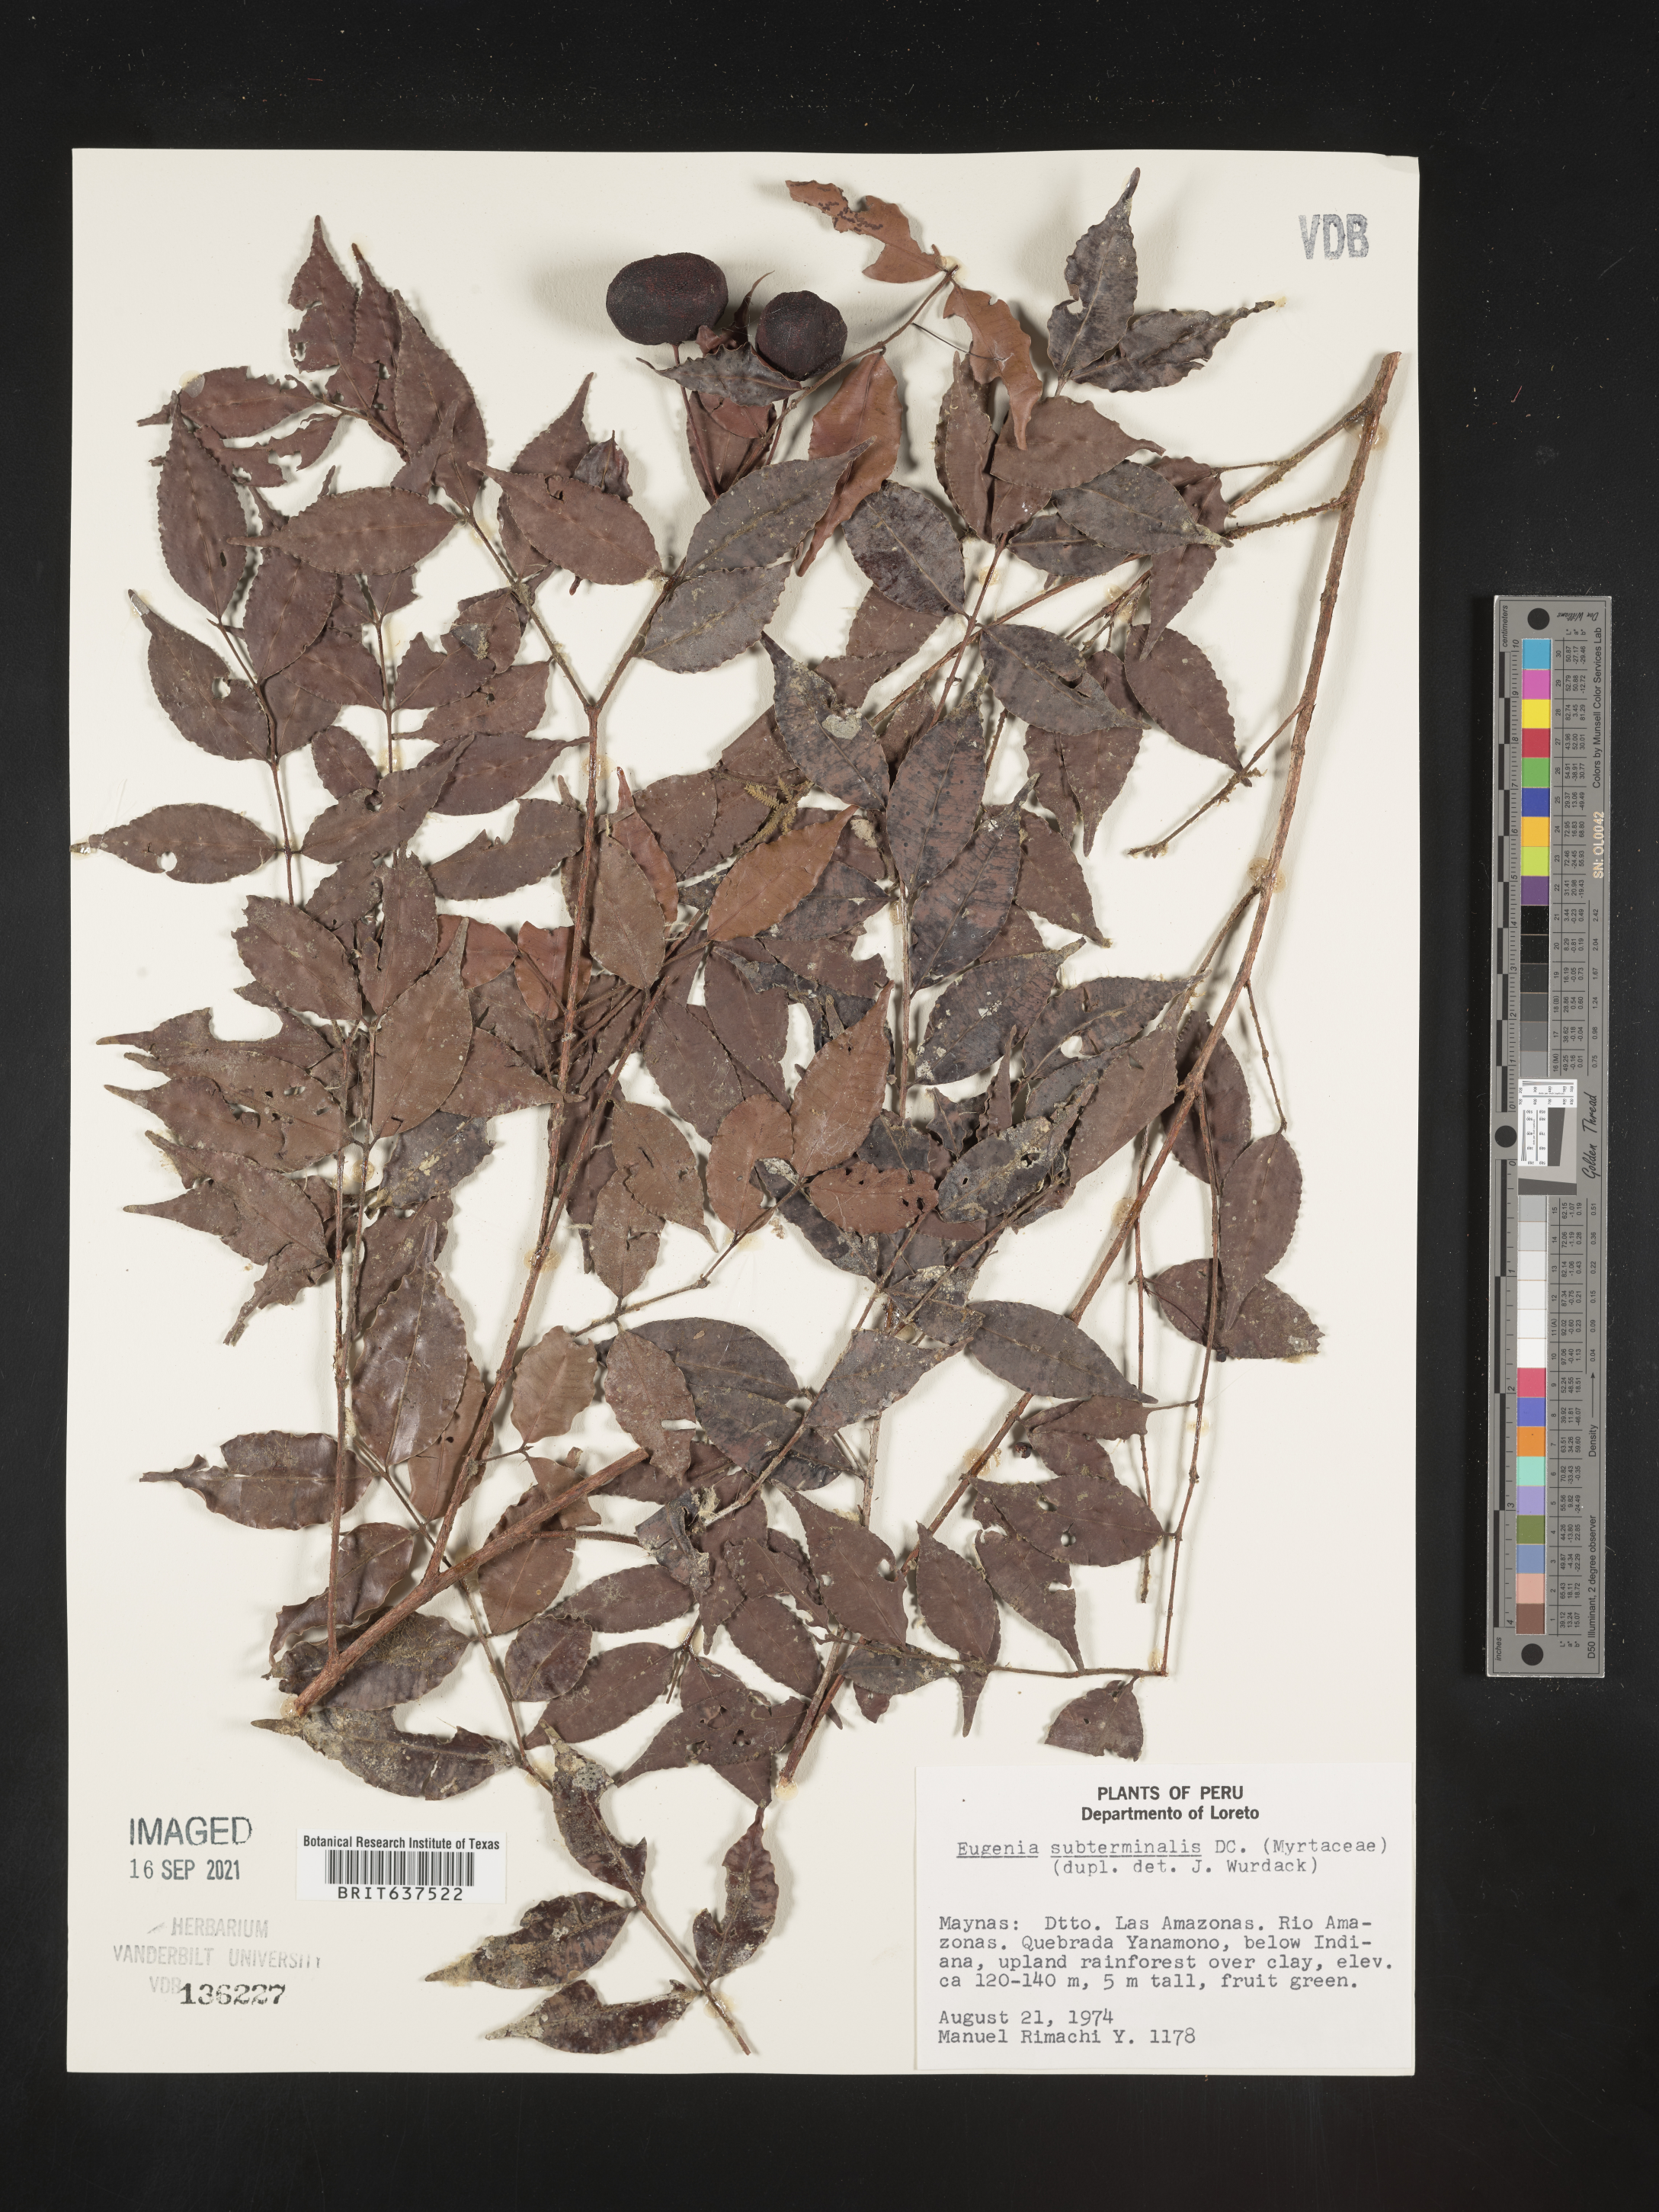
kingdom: Plantae
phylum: Tracheophyta
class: Magnoliopsida
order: Myrtales
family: Myrtaceae
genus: Eugenia
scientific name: Eugenia
